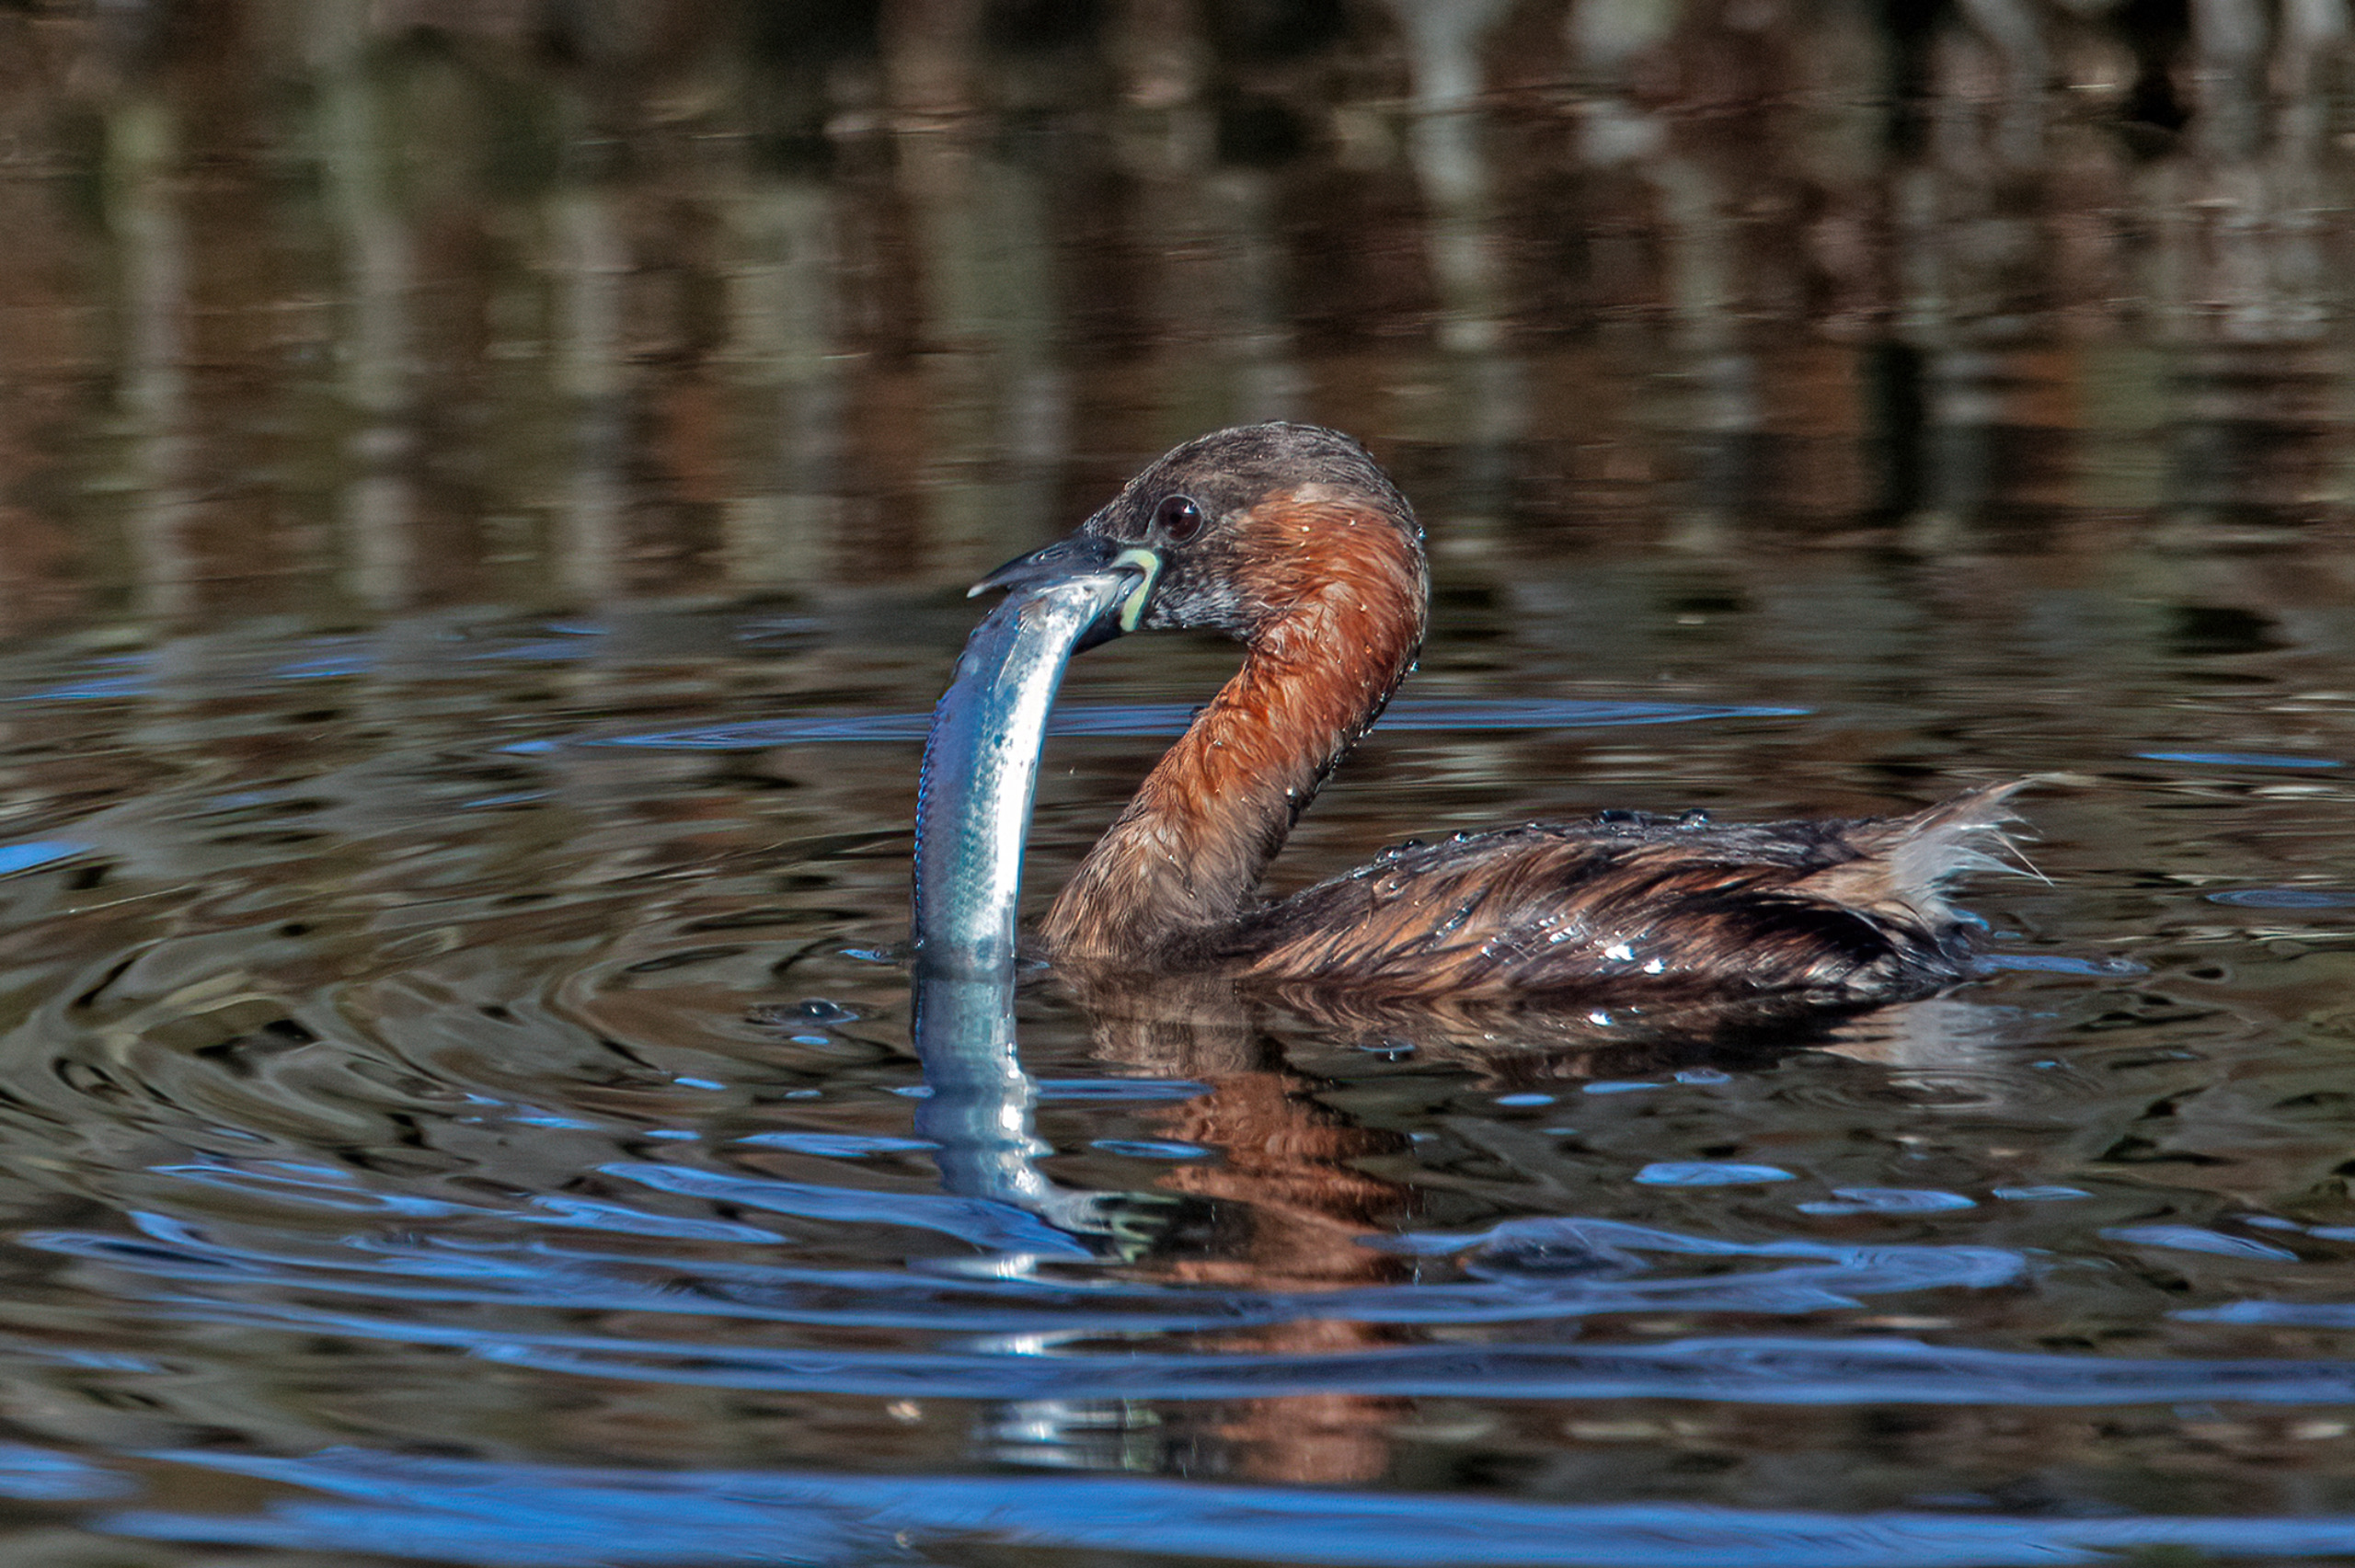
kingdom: Animalia
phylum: Chordata
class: Aves
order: Podicipediformes
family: Podicipedidae
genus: Tachybaptus
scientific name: Tachybaptus ruficollis
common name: Lille lappedykker
